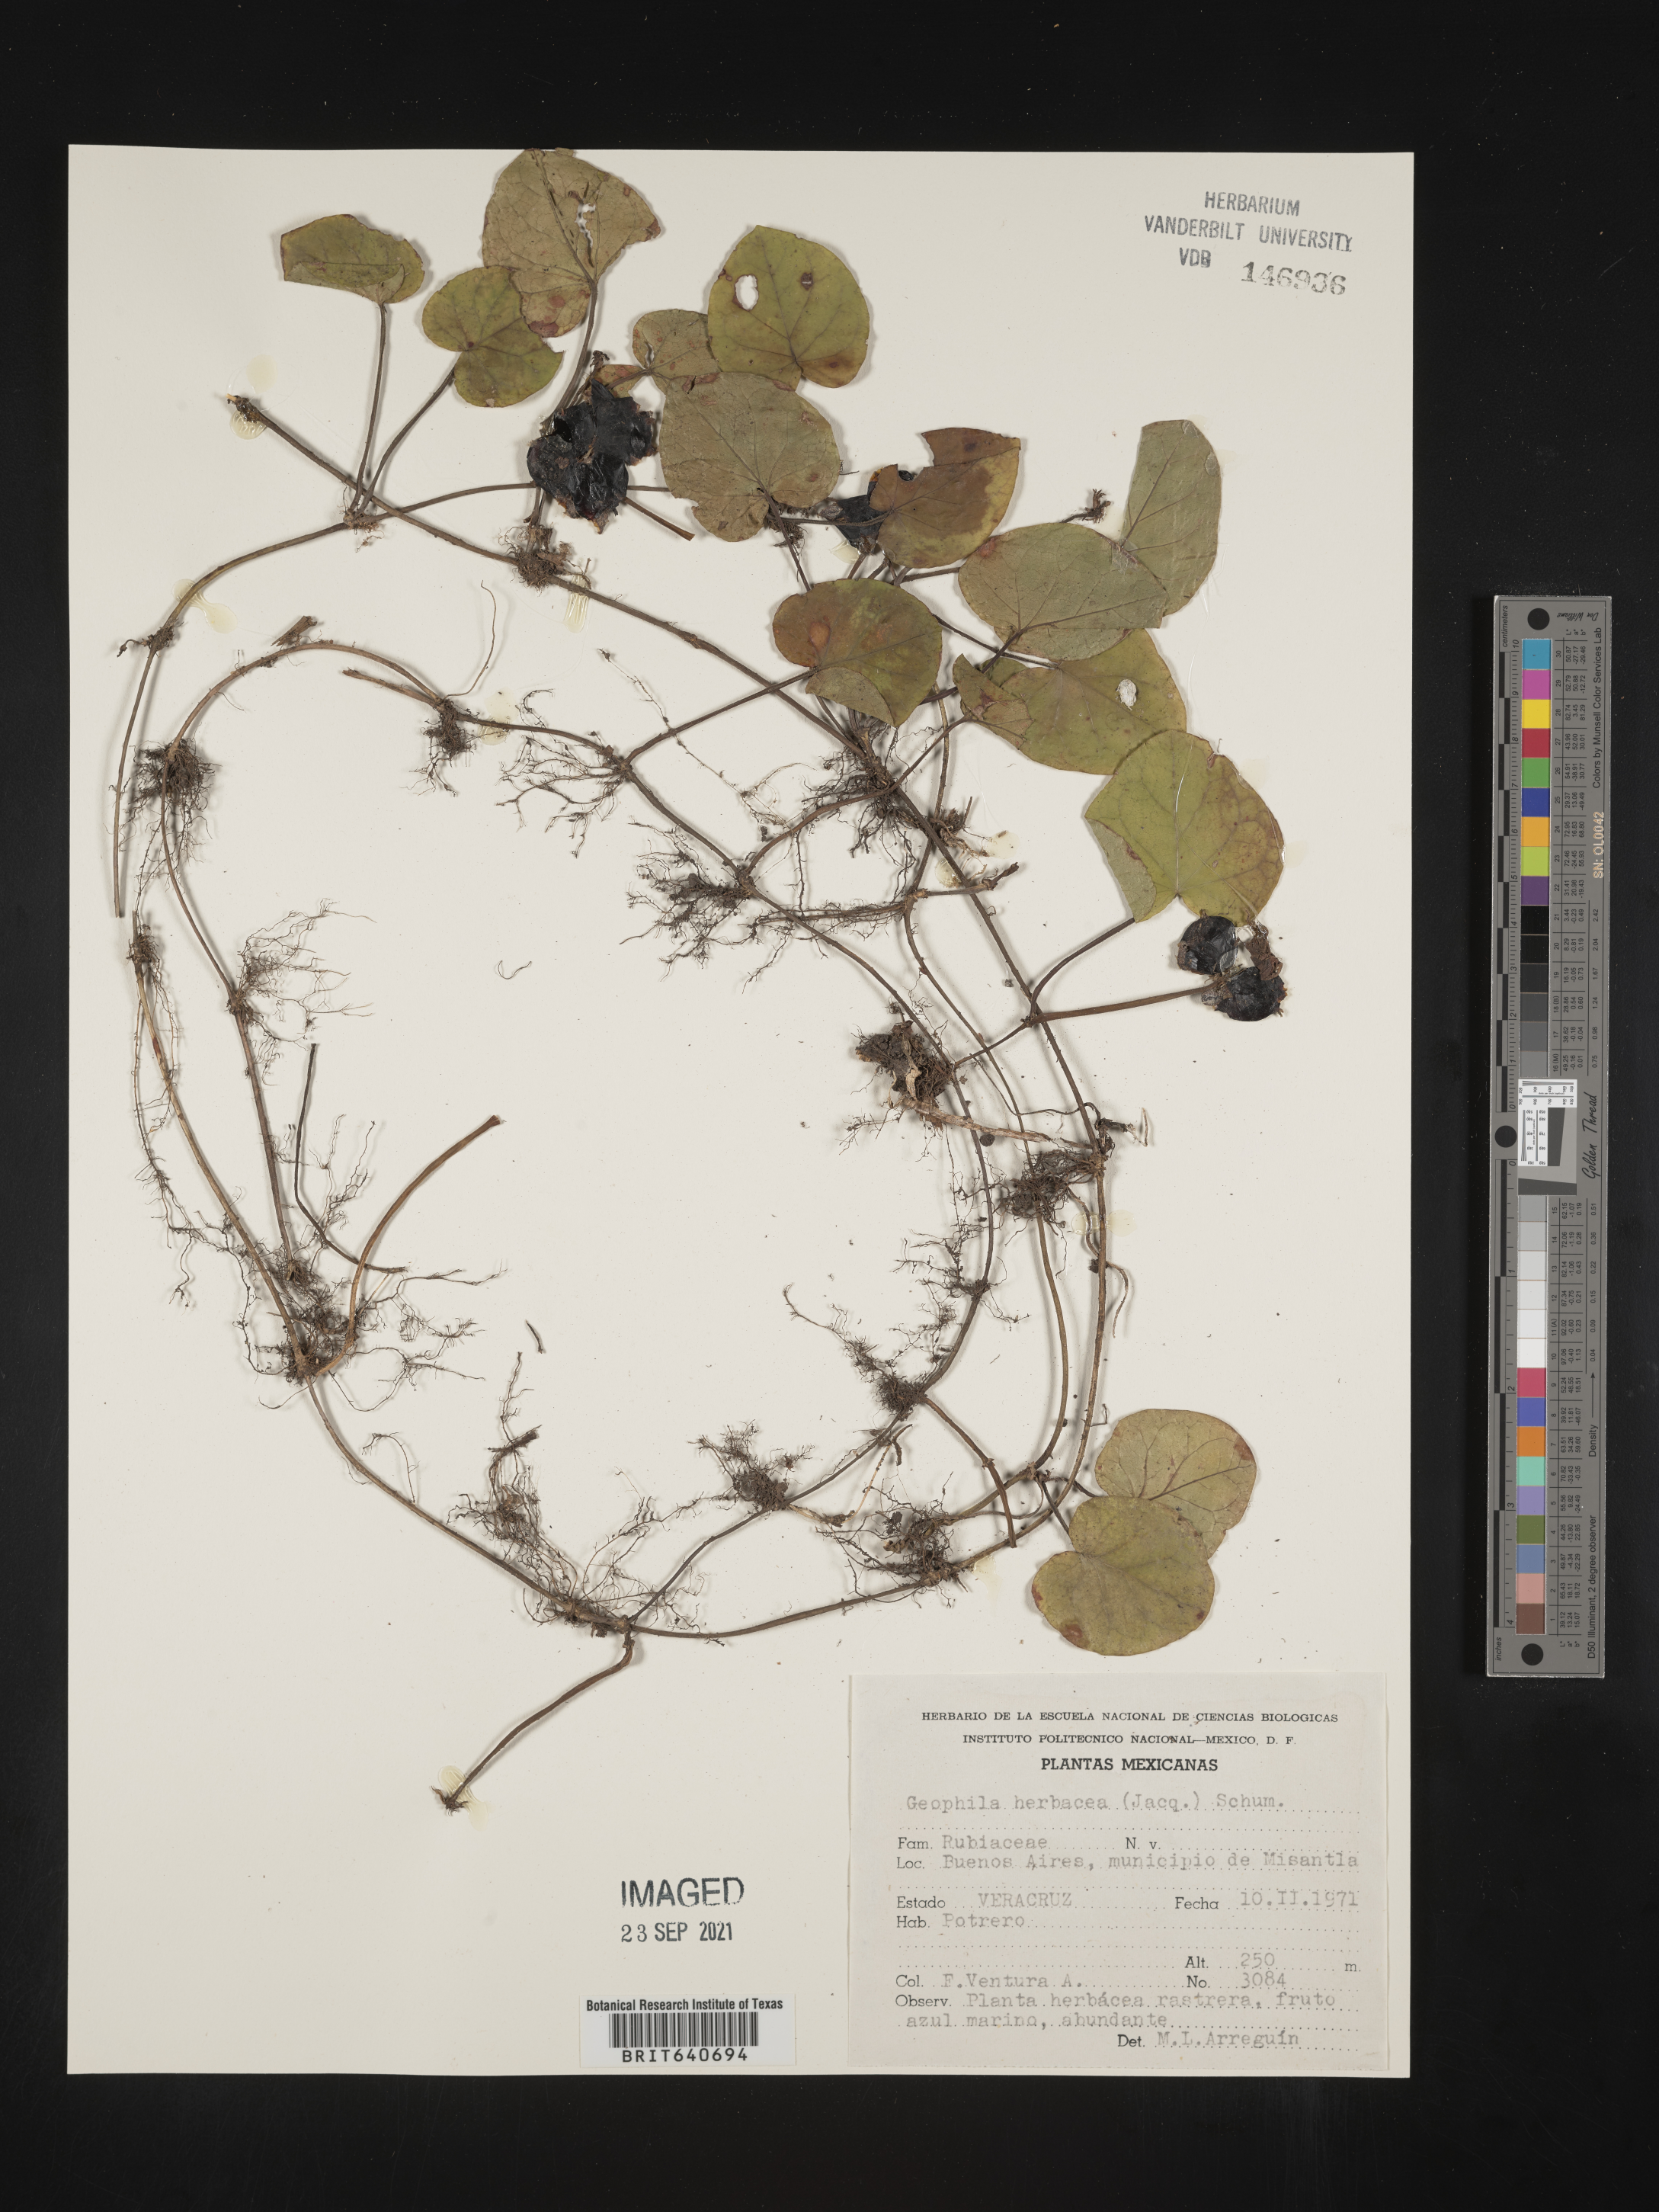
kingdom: Plantae
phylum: Tracheophyta
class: Magnoliopsida
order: Gentianales
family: Rubiaceae
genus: Geophila
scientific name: Geophila
